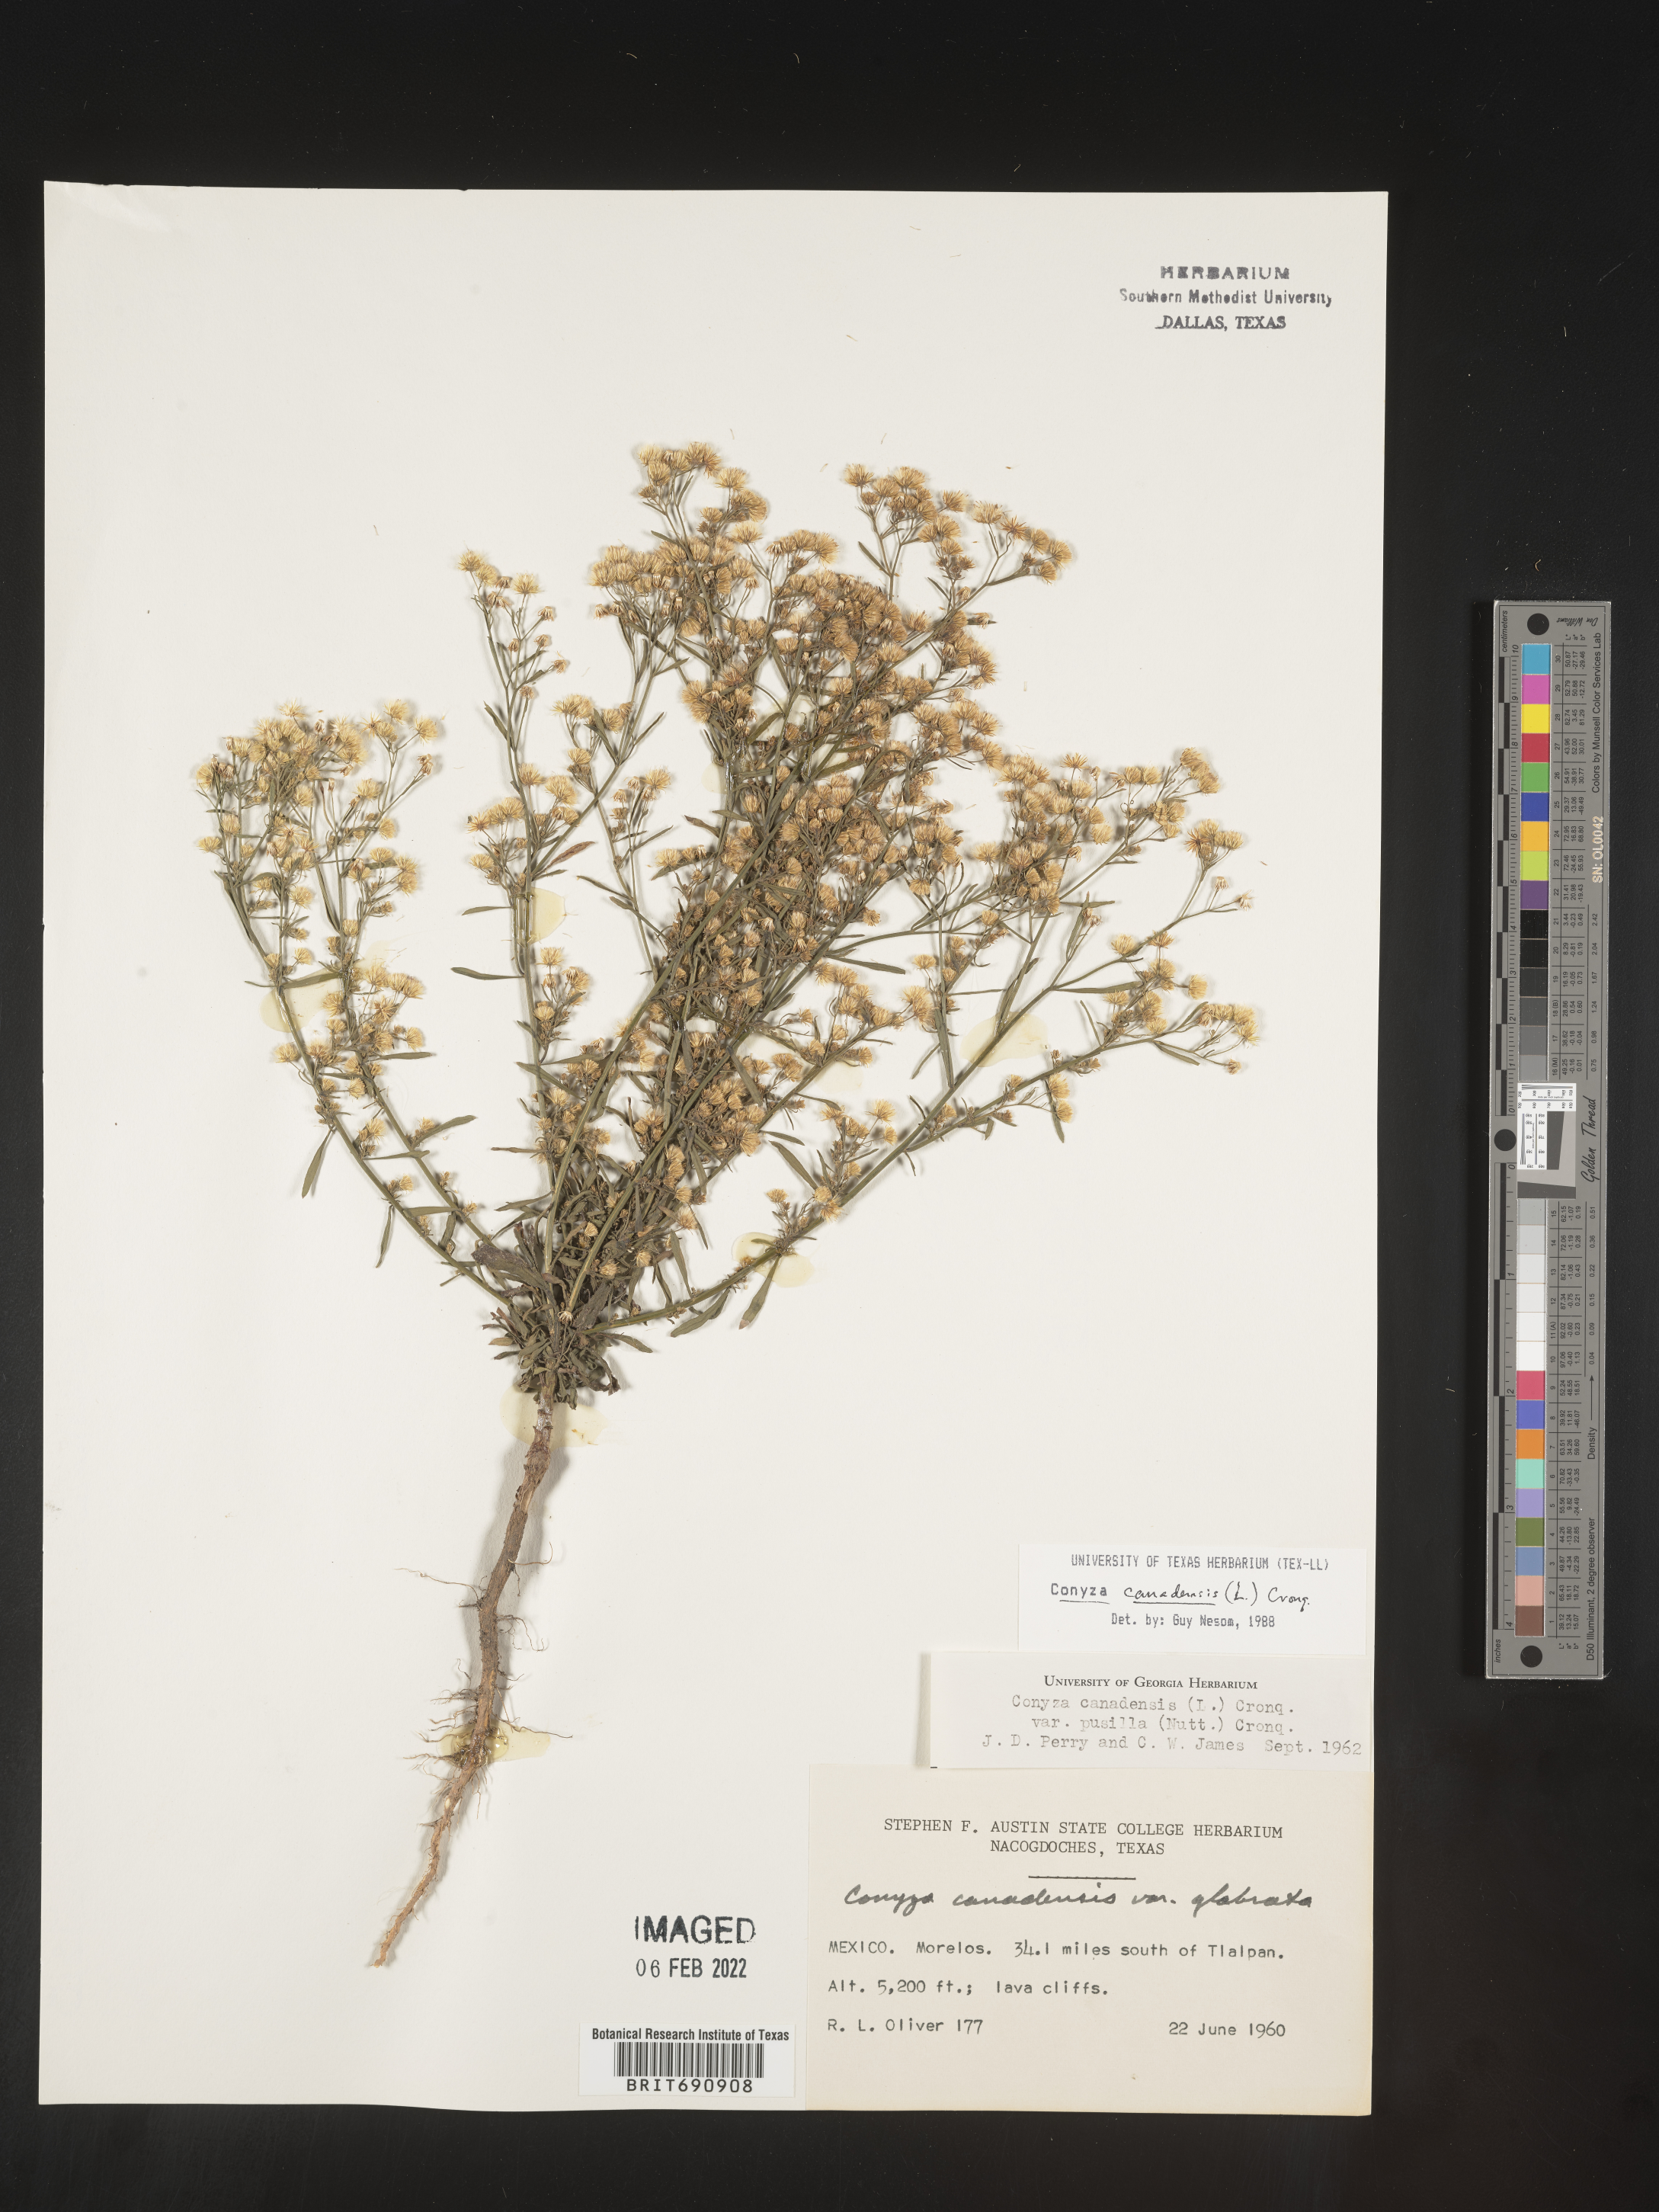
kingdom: Plantae
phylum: Tracheophyta
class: Magnoliopsida
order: Asterales
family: Asteraceae
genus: Erigeron
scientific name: Erigeron canadensis
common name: Canadian fleabane
